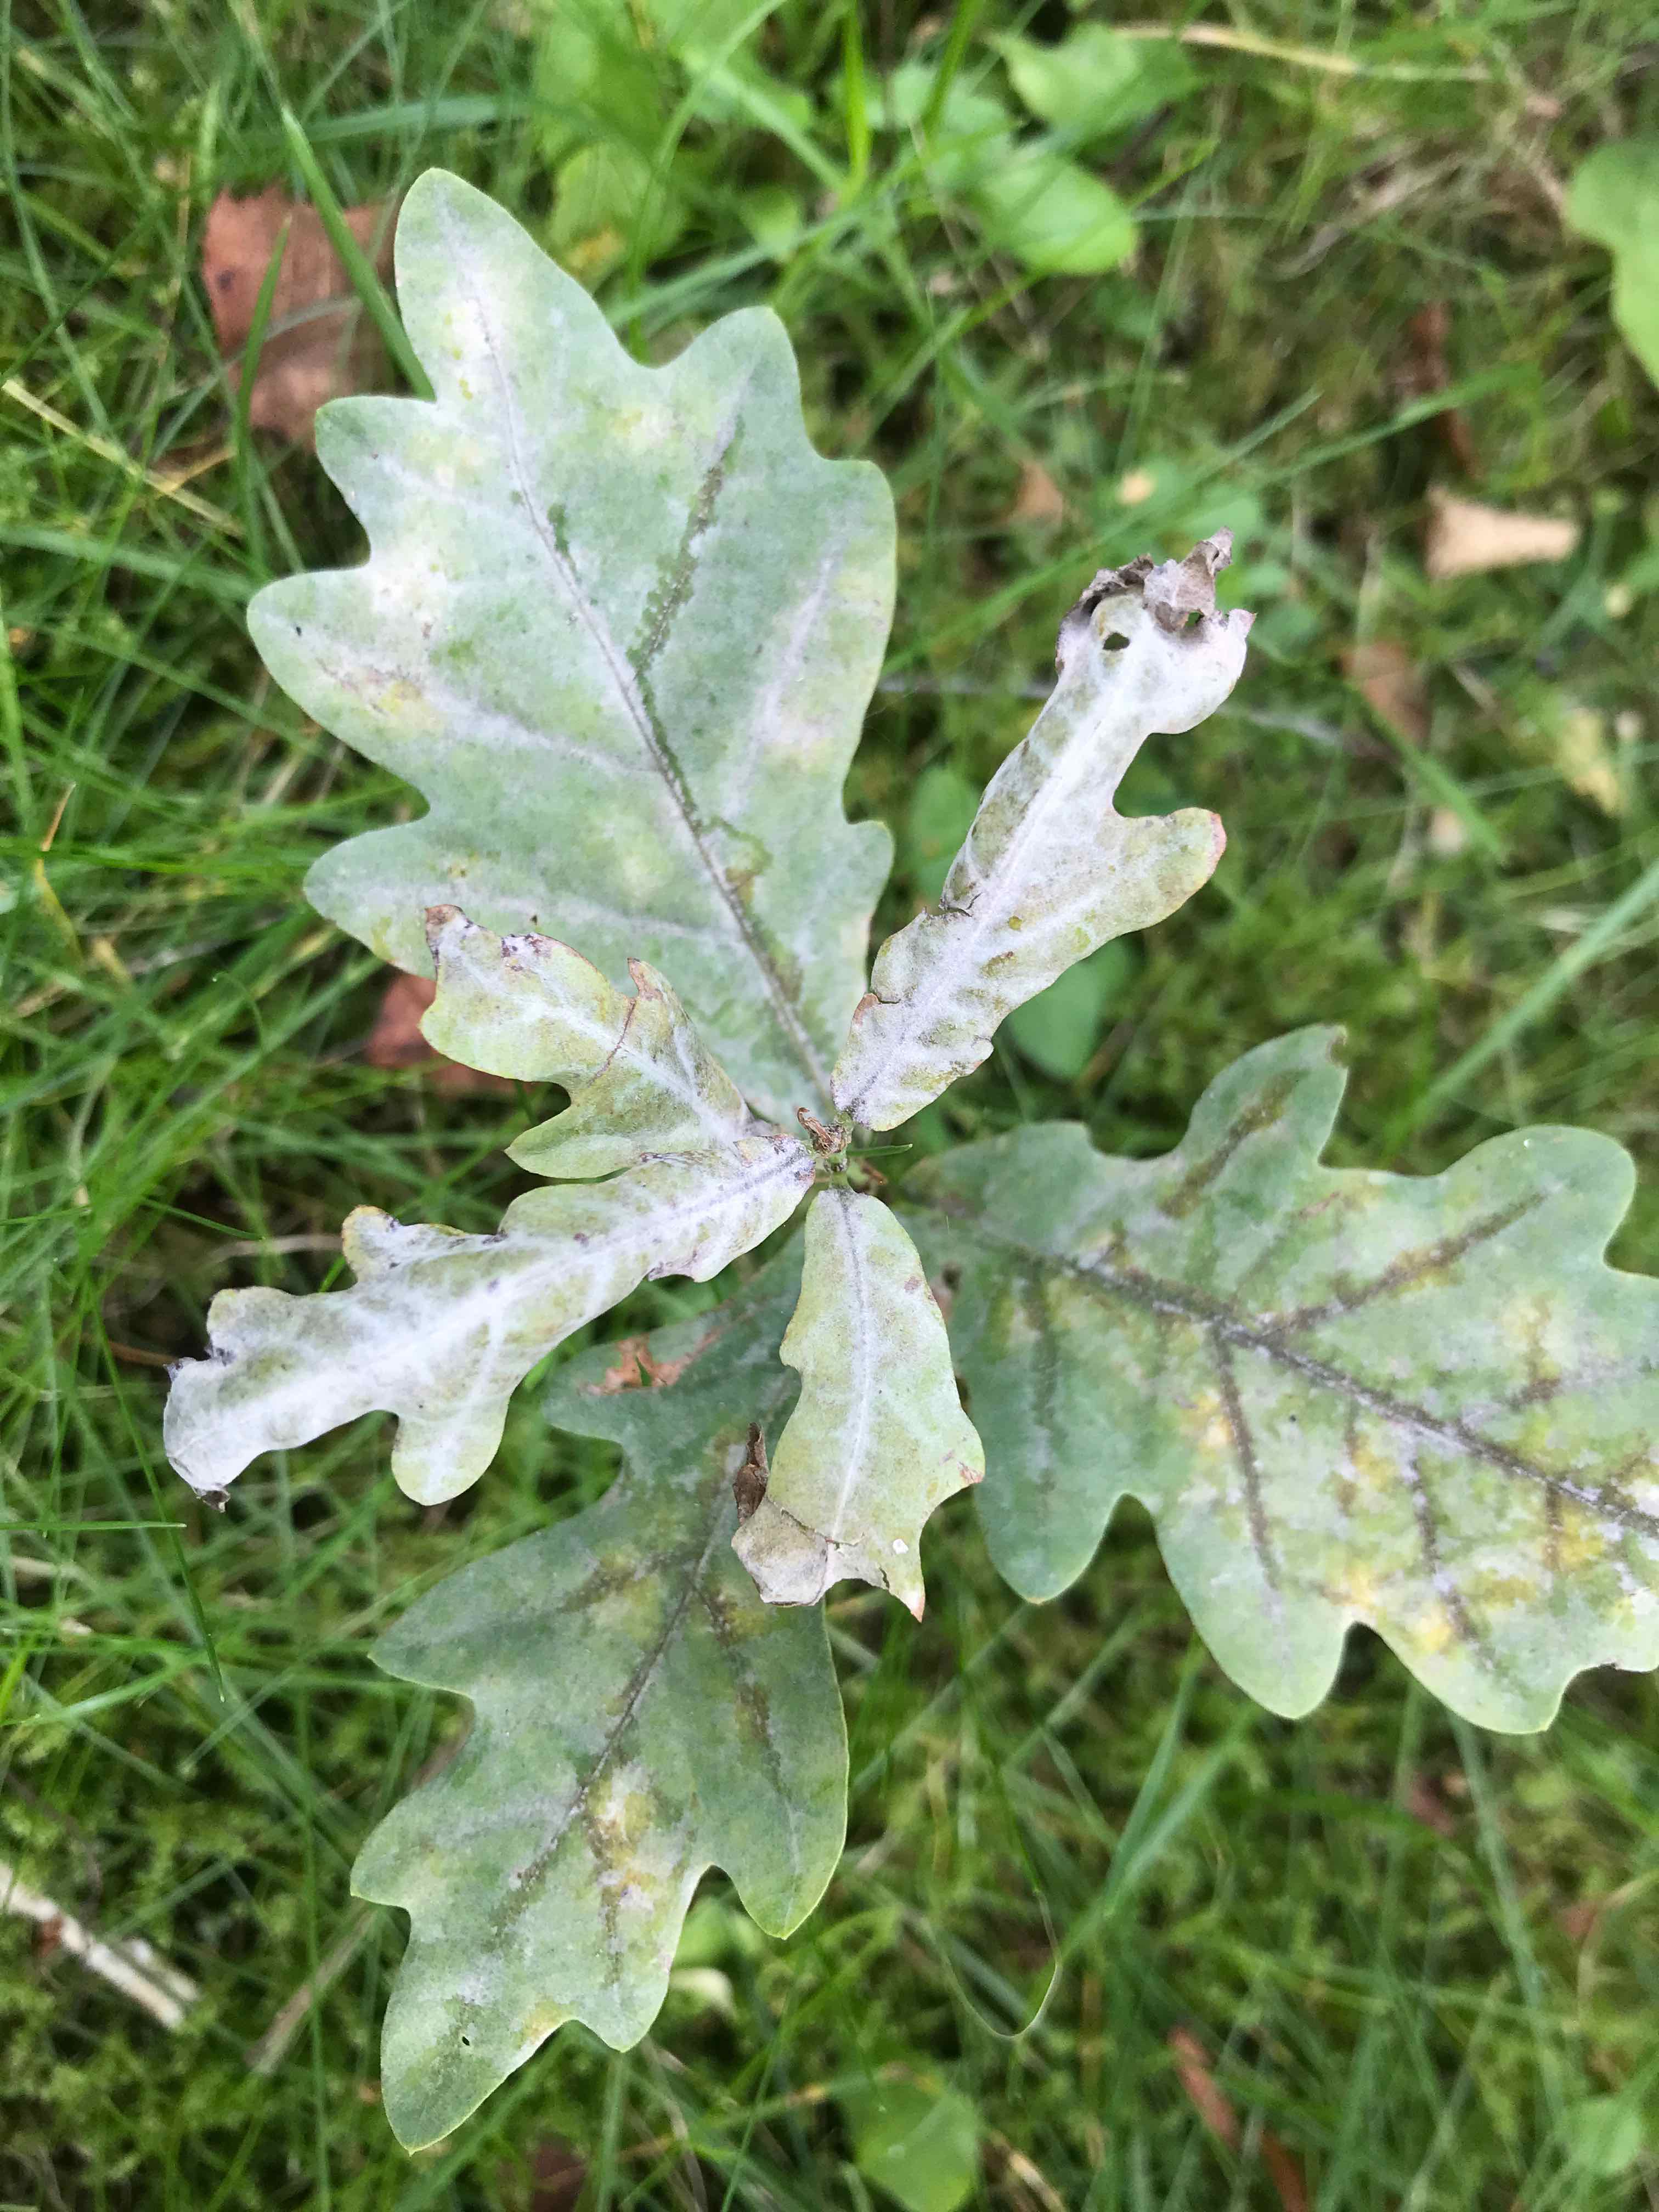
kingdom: Fungi
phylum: Ascomycota
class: Leotiomycetes
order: Helotiales
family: Erysiphaceae
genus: Erysiphe
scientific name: Erysiphe alphitoides
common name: ege-meldug
